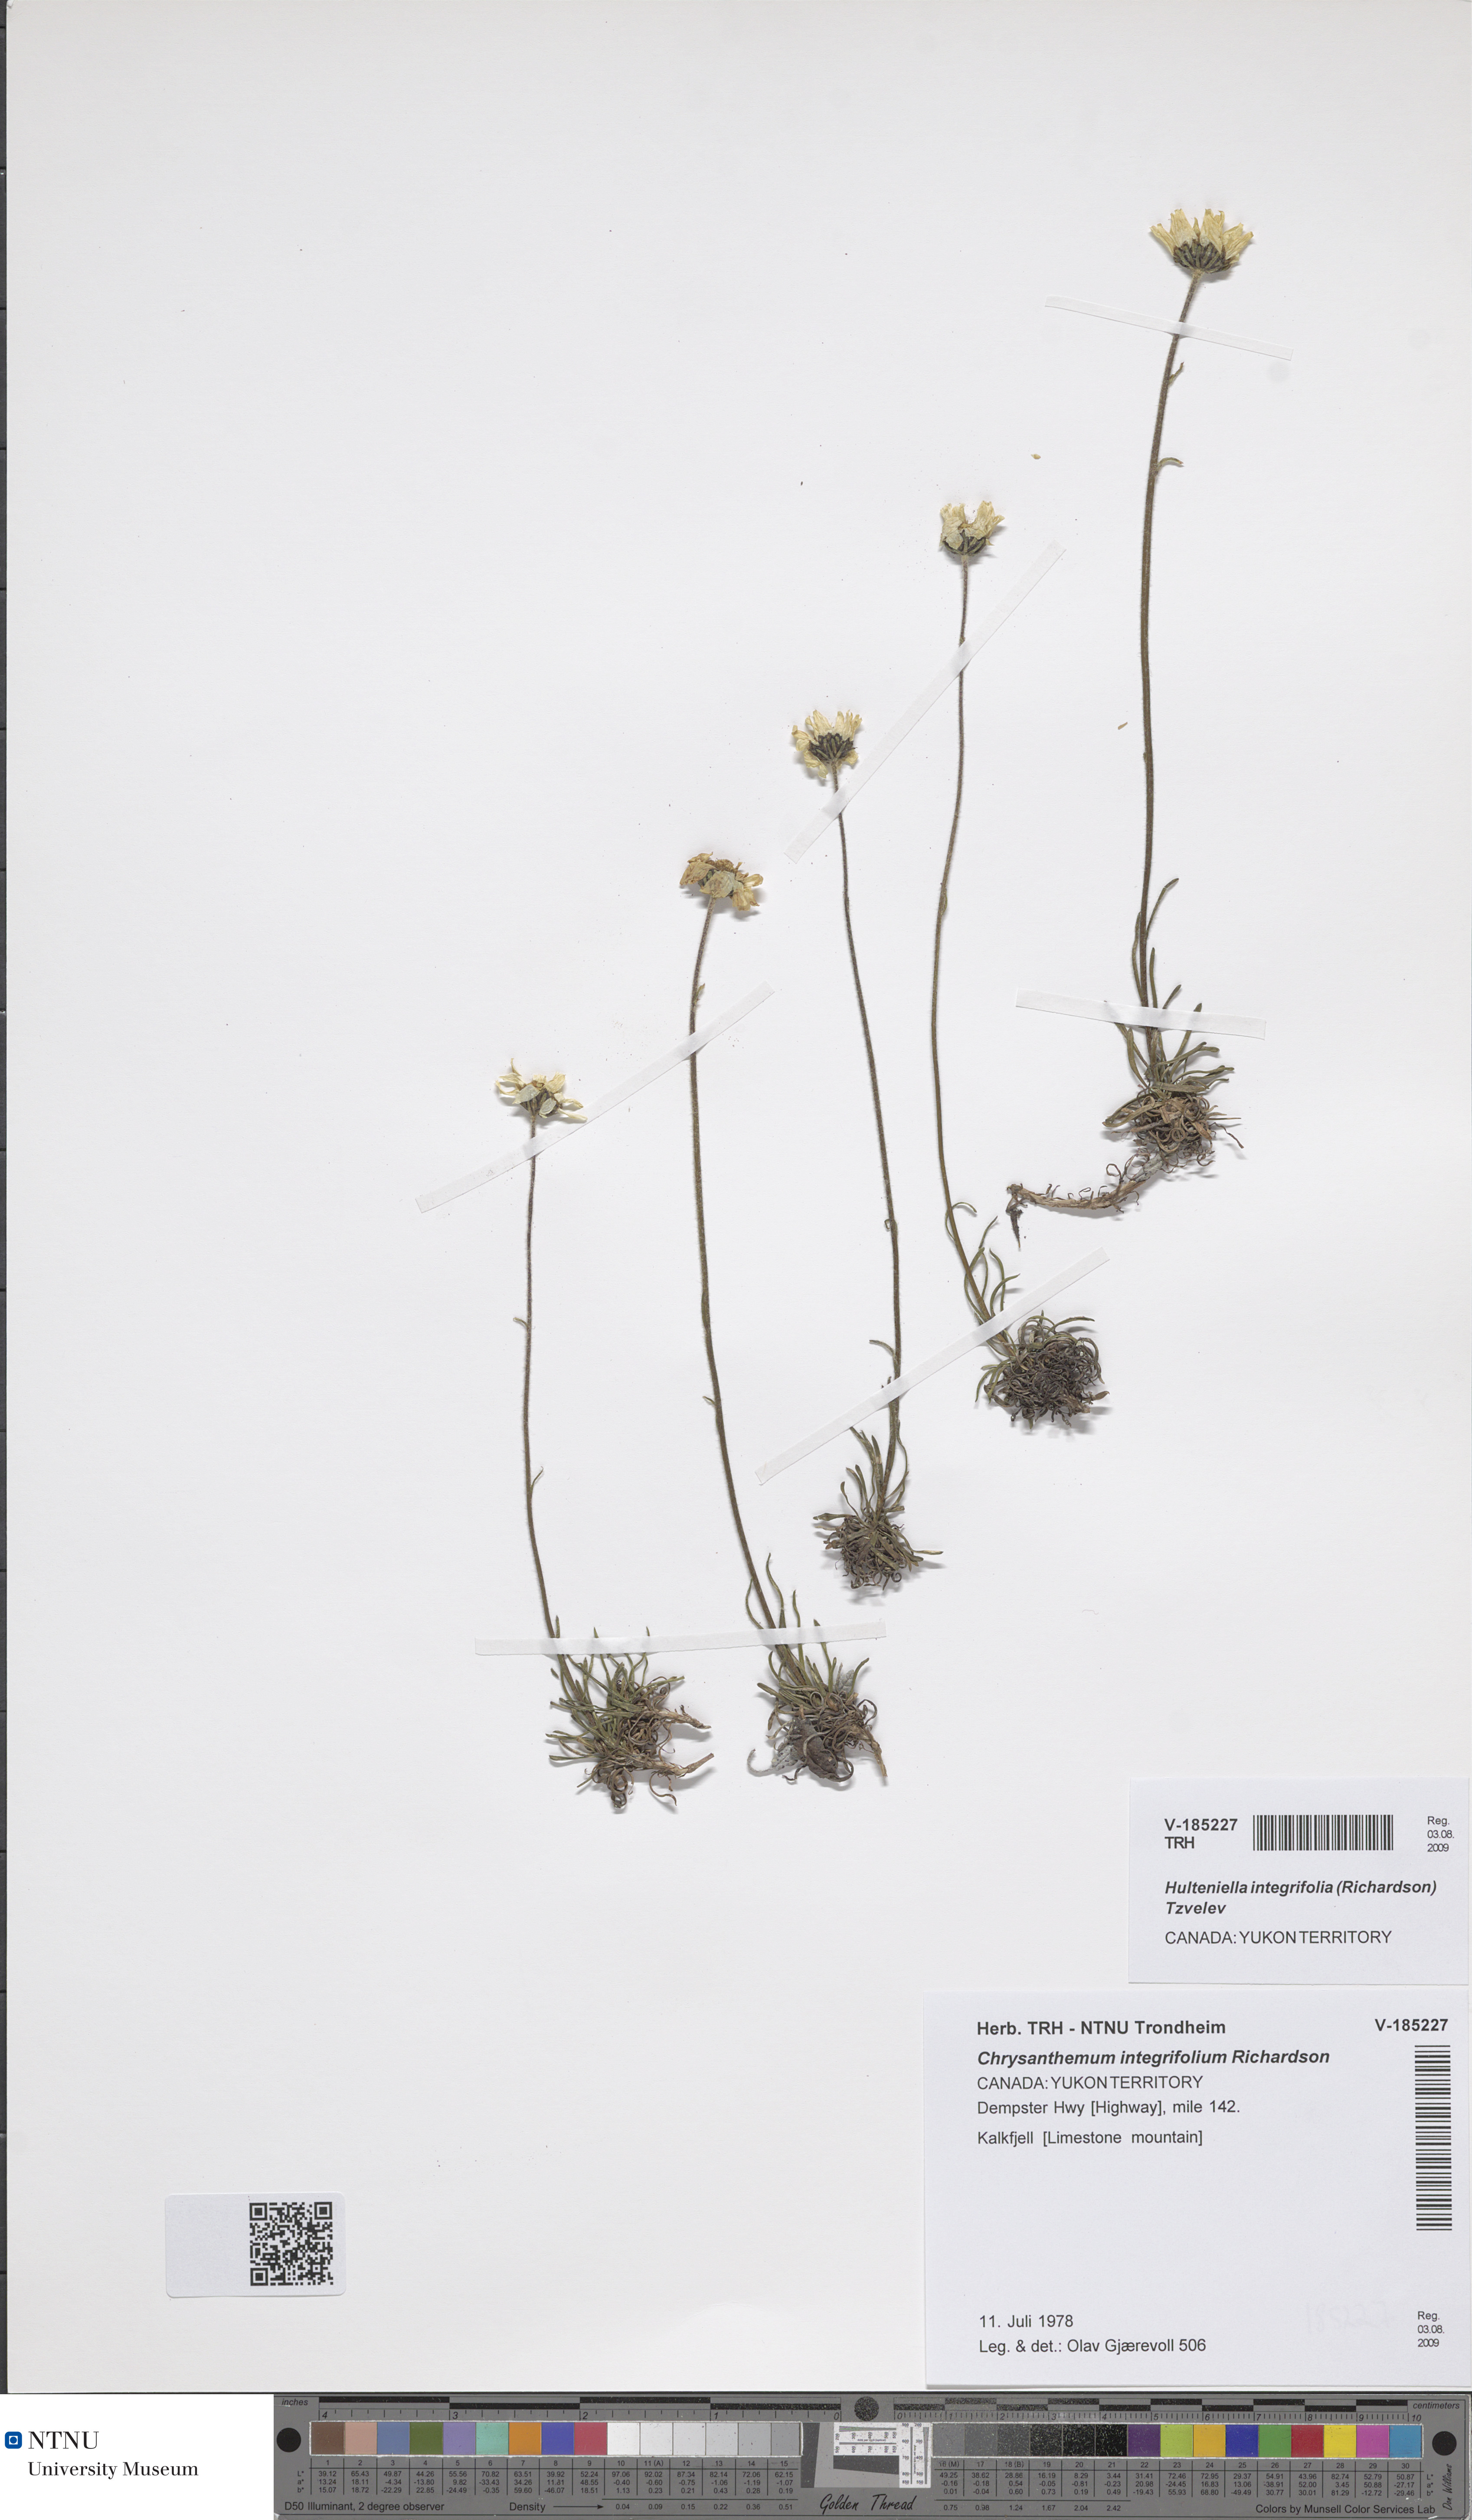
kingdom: Plantae
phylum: Tracheophyta
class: Magnoliopsida
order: Asterales
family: Asteraceae
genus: Arctanthemum
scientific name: Arctanthemum integrifolium
